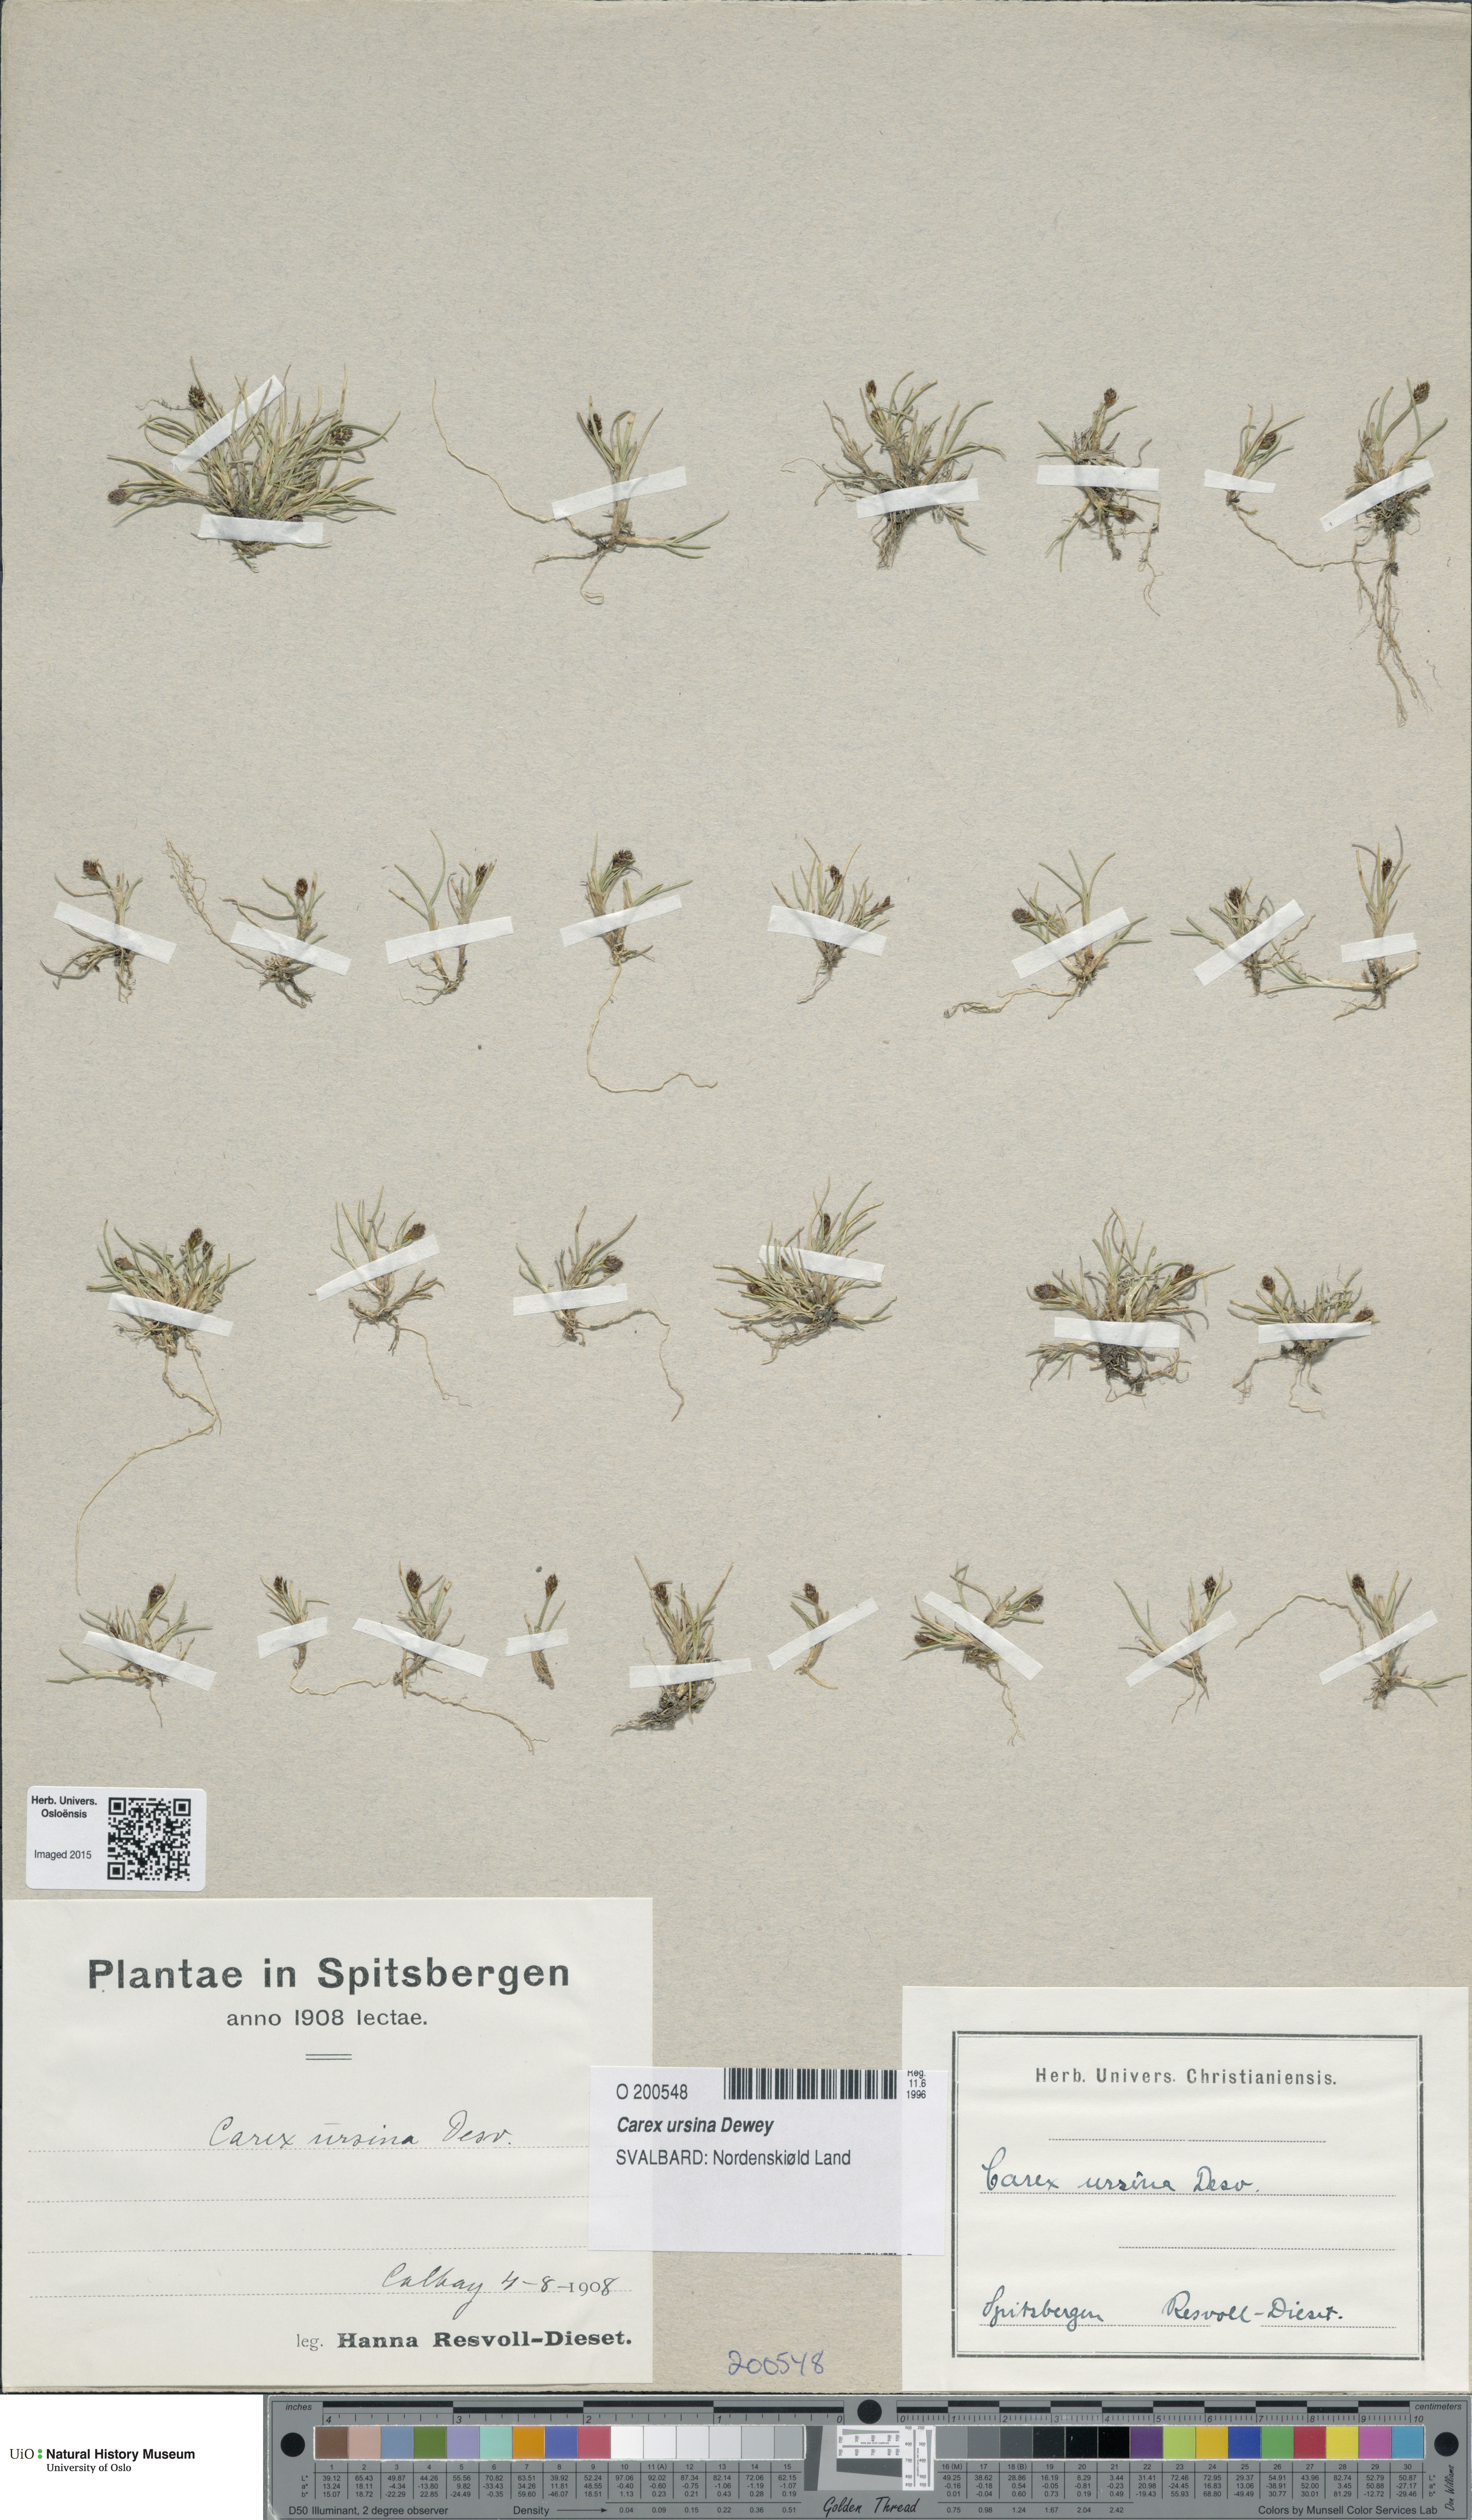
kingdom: Plantae
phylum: Tracheophyta
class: Liliopsida
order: Poales
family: Cyperaceae
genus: Carex
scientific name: Carex ursina
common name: Bear sedge
